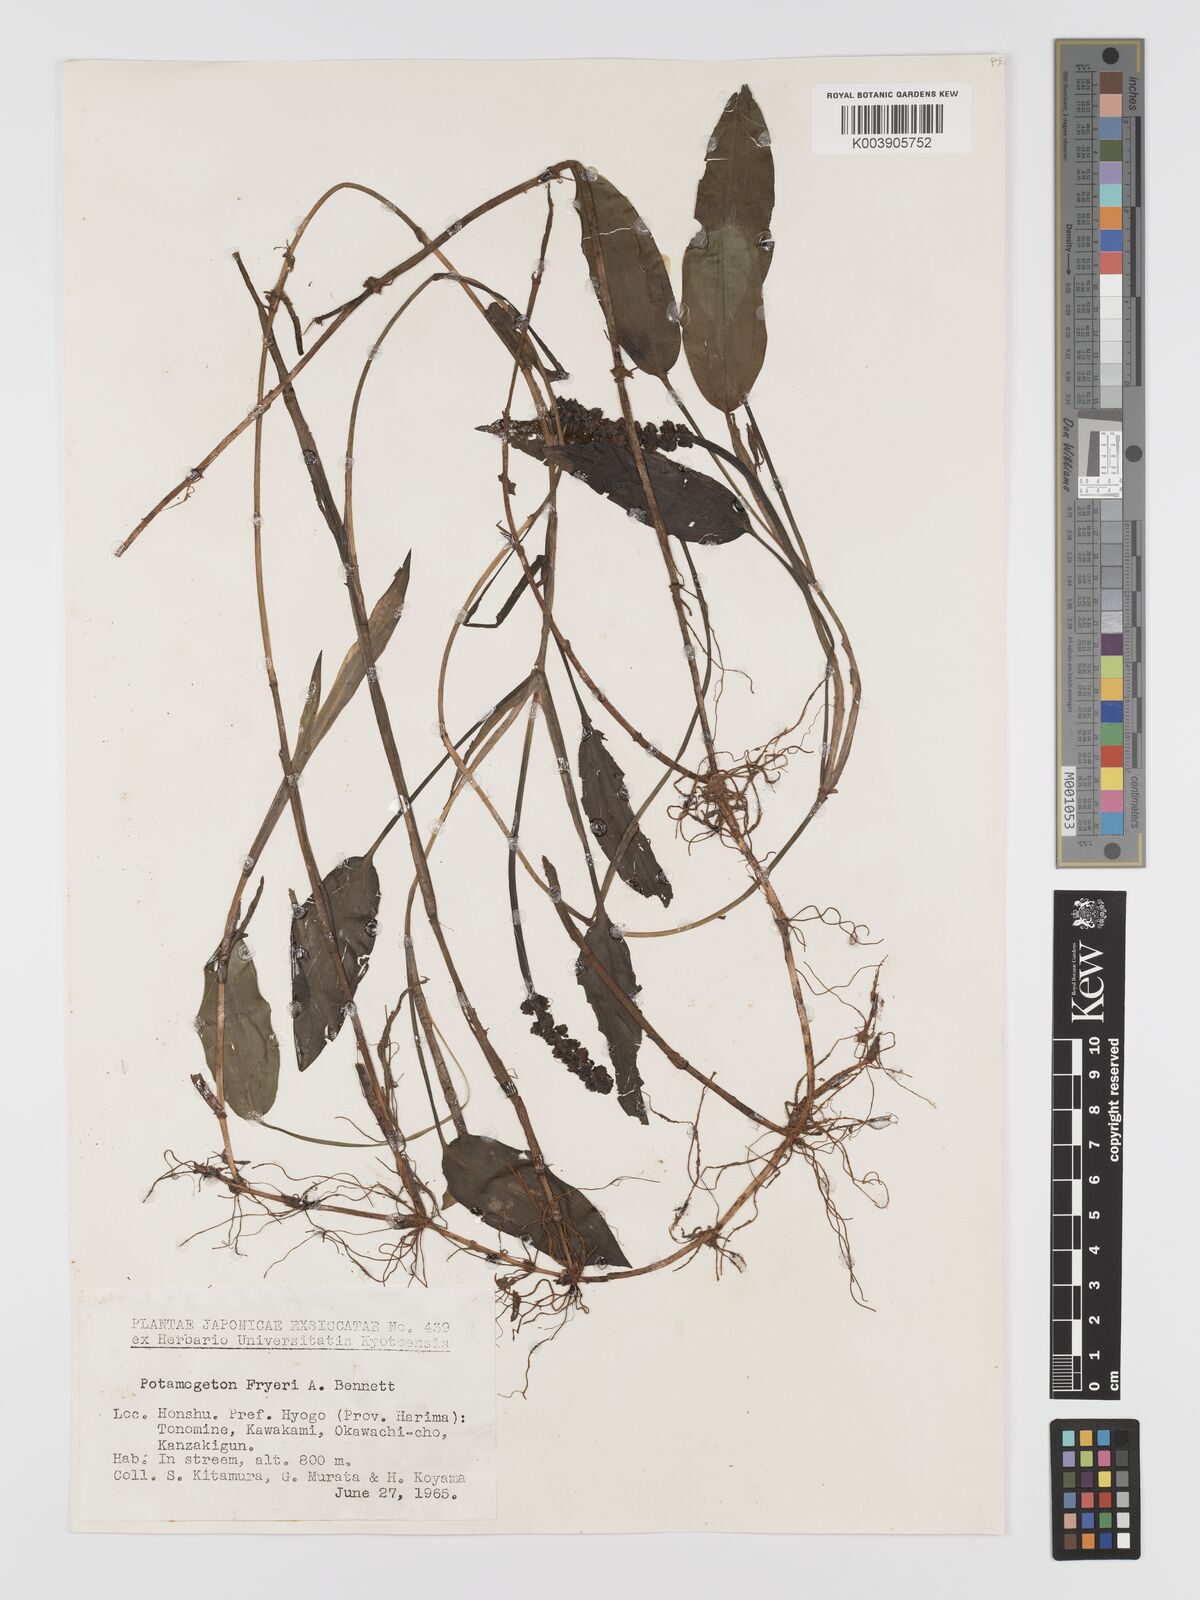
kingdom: Plantae
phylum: Tracheophyta
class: Liliopsida
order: Alismatales
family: Potamogetonaceae
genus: Potamogeton
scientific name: Potamogeton fryeri
